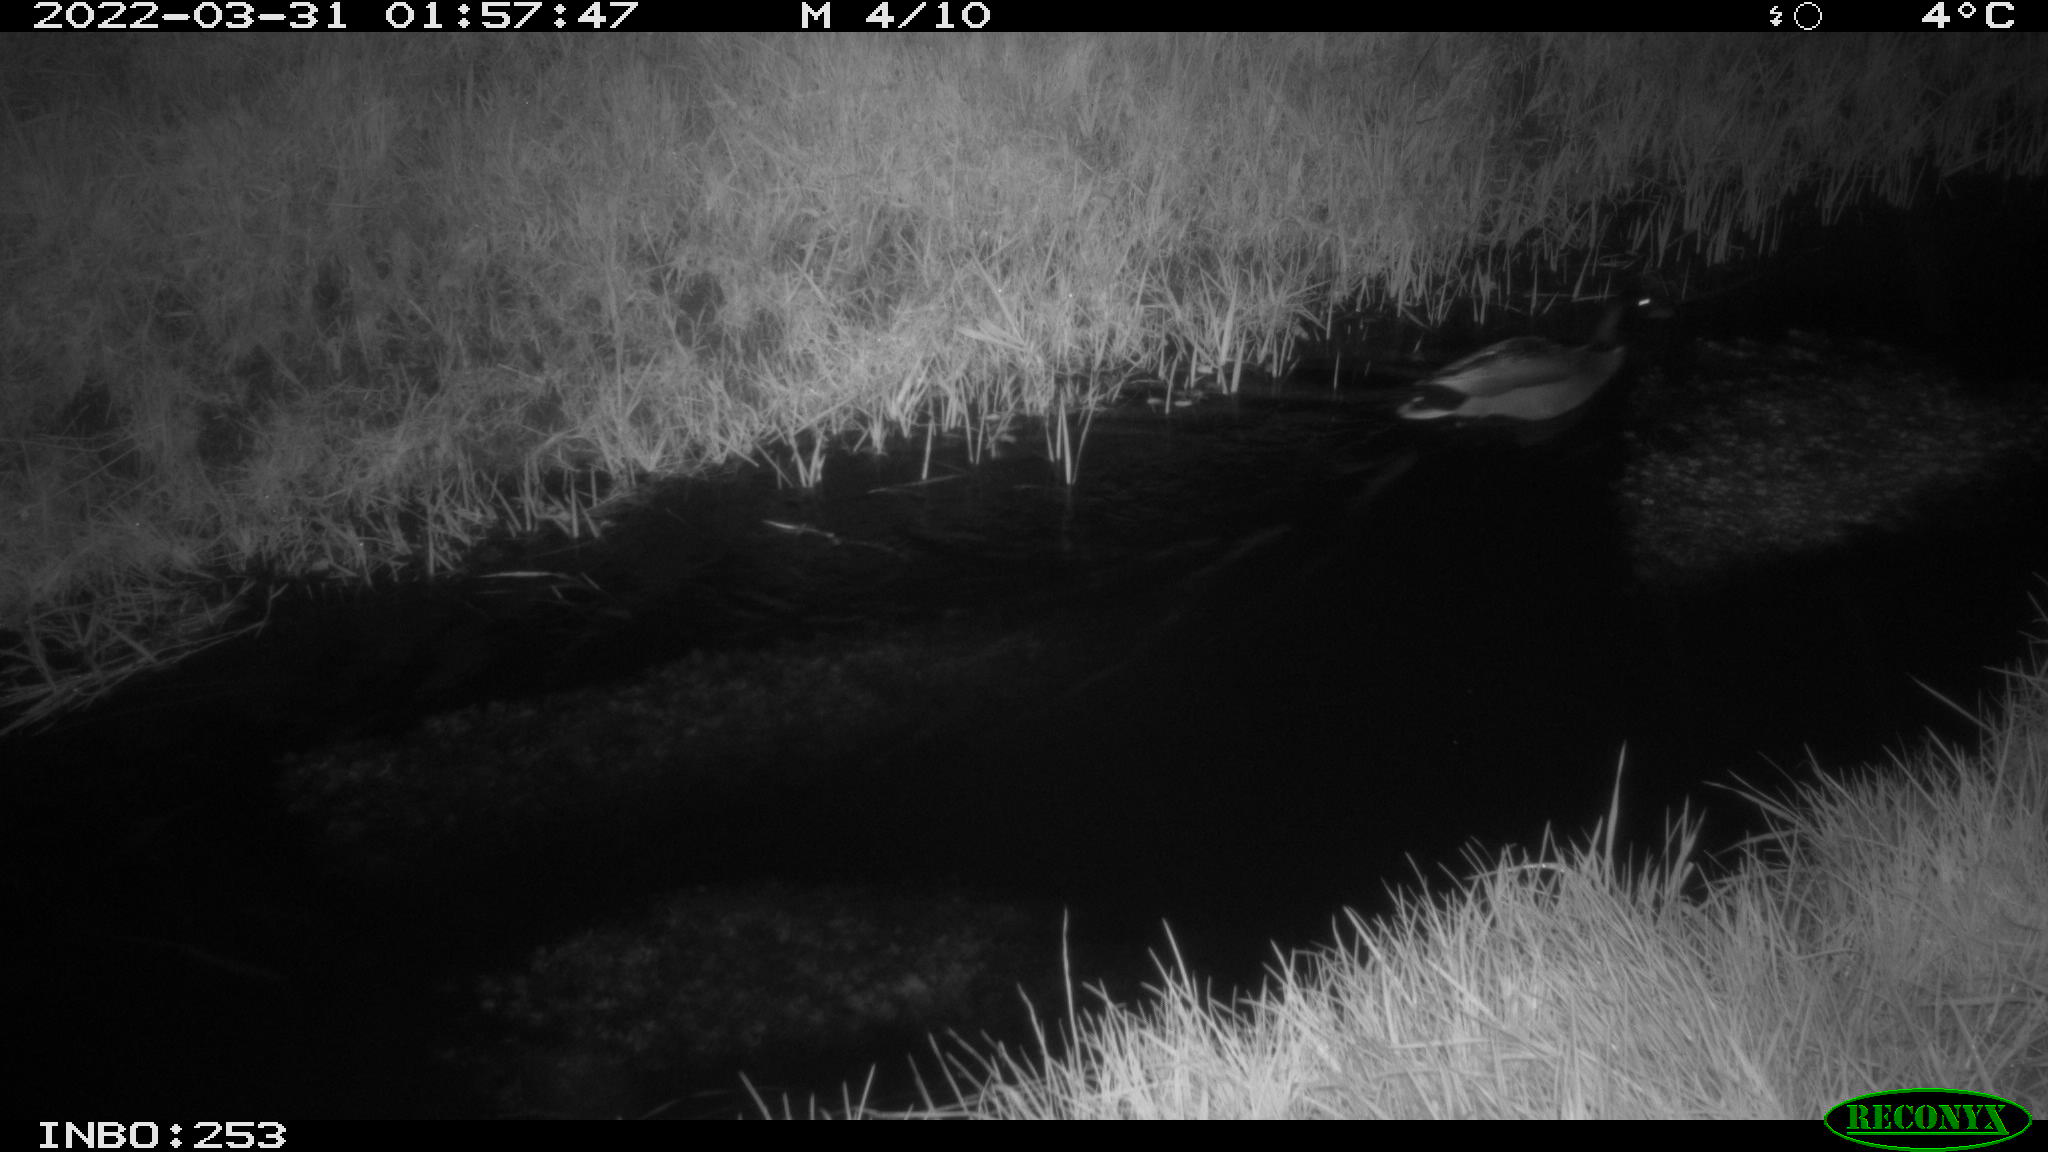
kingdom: Animalia
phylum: Chordata
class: Aves
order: Anseriformes
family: Anatidae
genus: Anas
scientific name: Anas platyrhynchos
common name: Mallard
